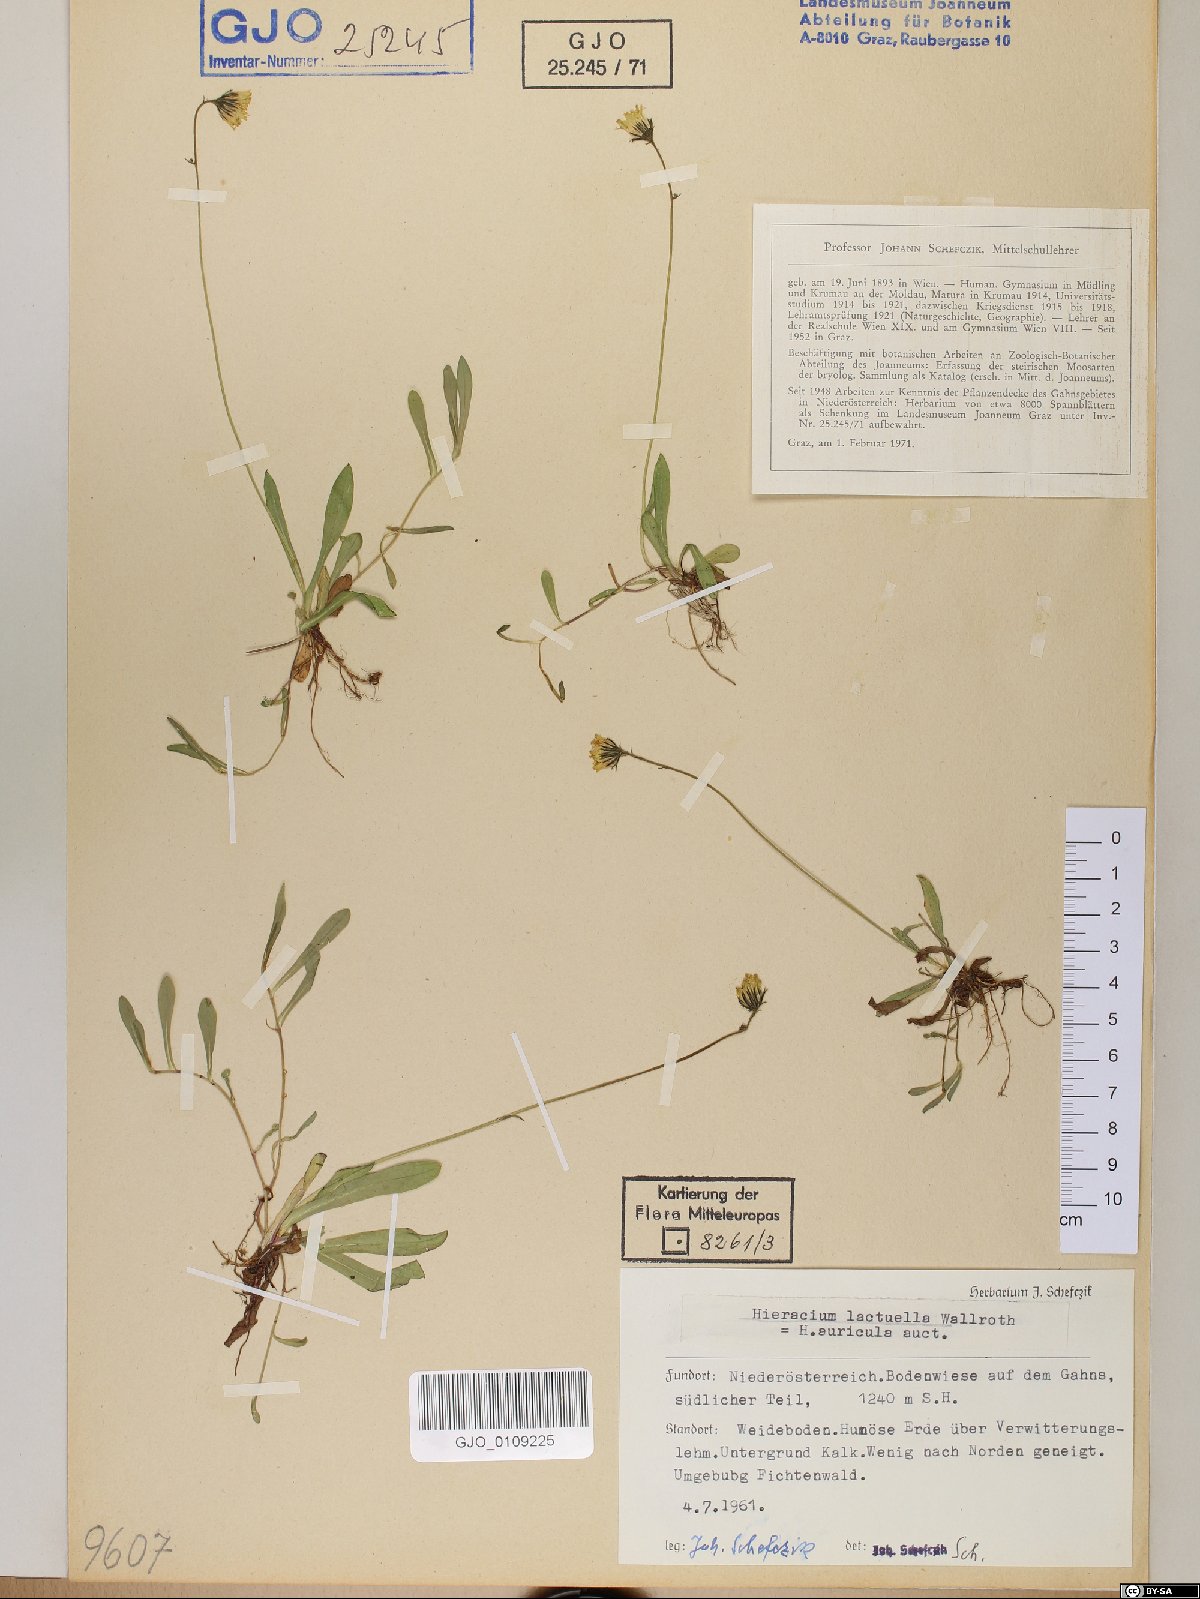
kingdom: Plantae
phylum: Tracheophyta
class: Magnoliopsida
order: Asterales
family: Asteraceae
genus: Pilosella
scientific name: Pilosella lactucella
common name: Glaucous fox-and-cubs
